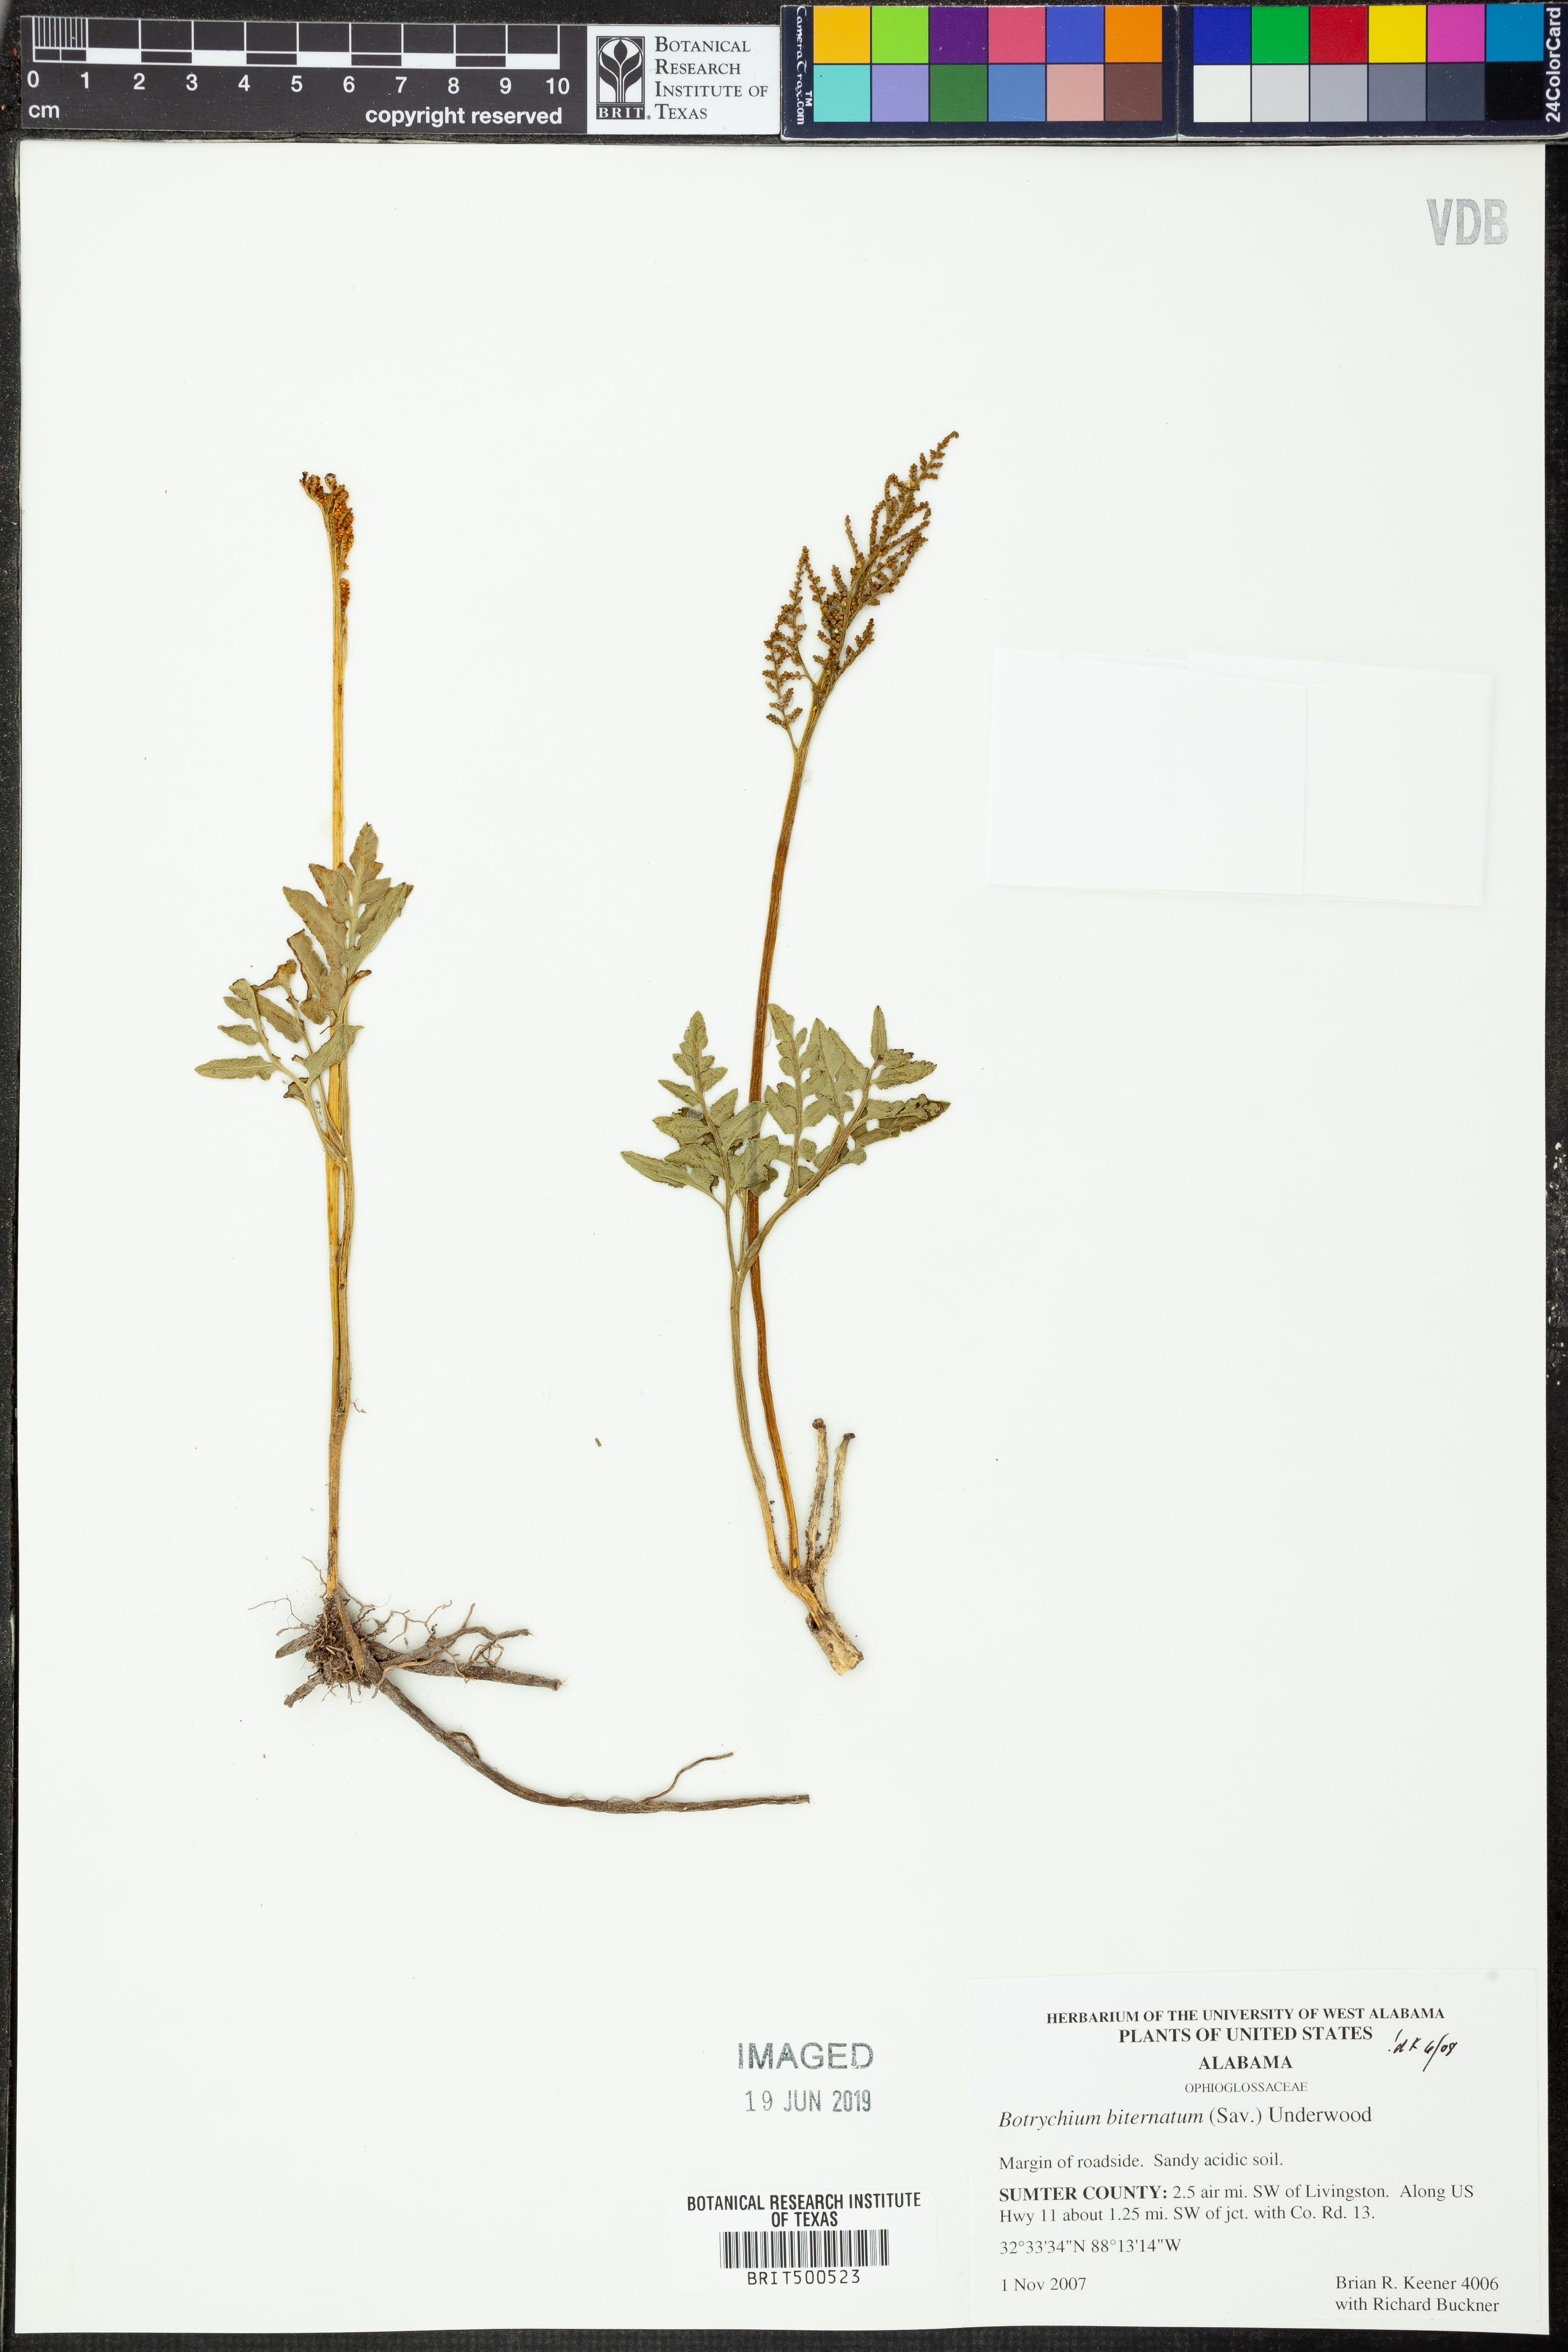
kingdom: Plantae
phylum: Tracheophyta
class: Polypodiopsida
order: Ophioglossales
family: Ophioglossaceae
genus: Sceptridium
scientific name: Sceptridium biternatum
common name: Sparse-lobed grapefern
